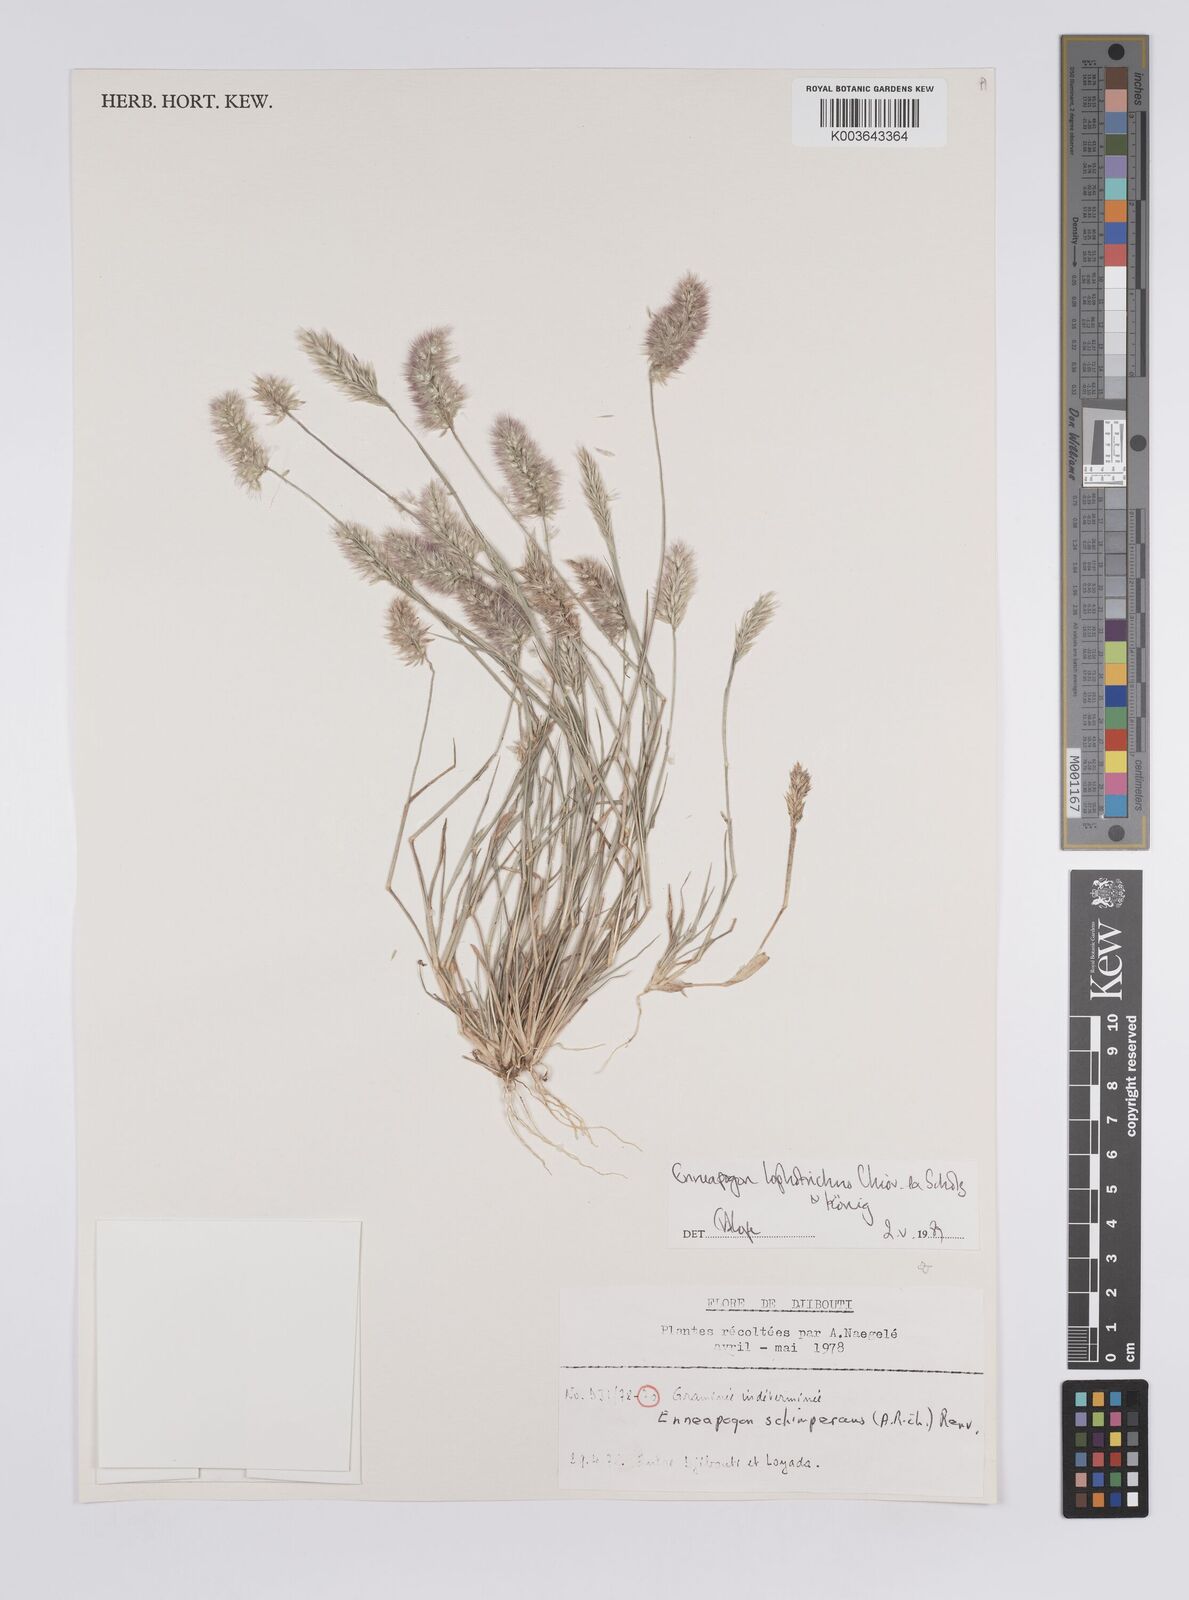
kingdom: Plantae
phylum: Tracheophyta
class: Liliopsida
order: Poales
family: Poaceae
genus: Enneapogon
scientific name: Enneapogon lophotrichus
